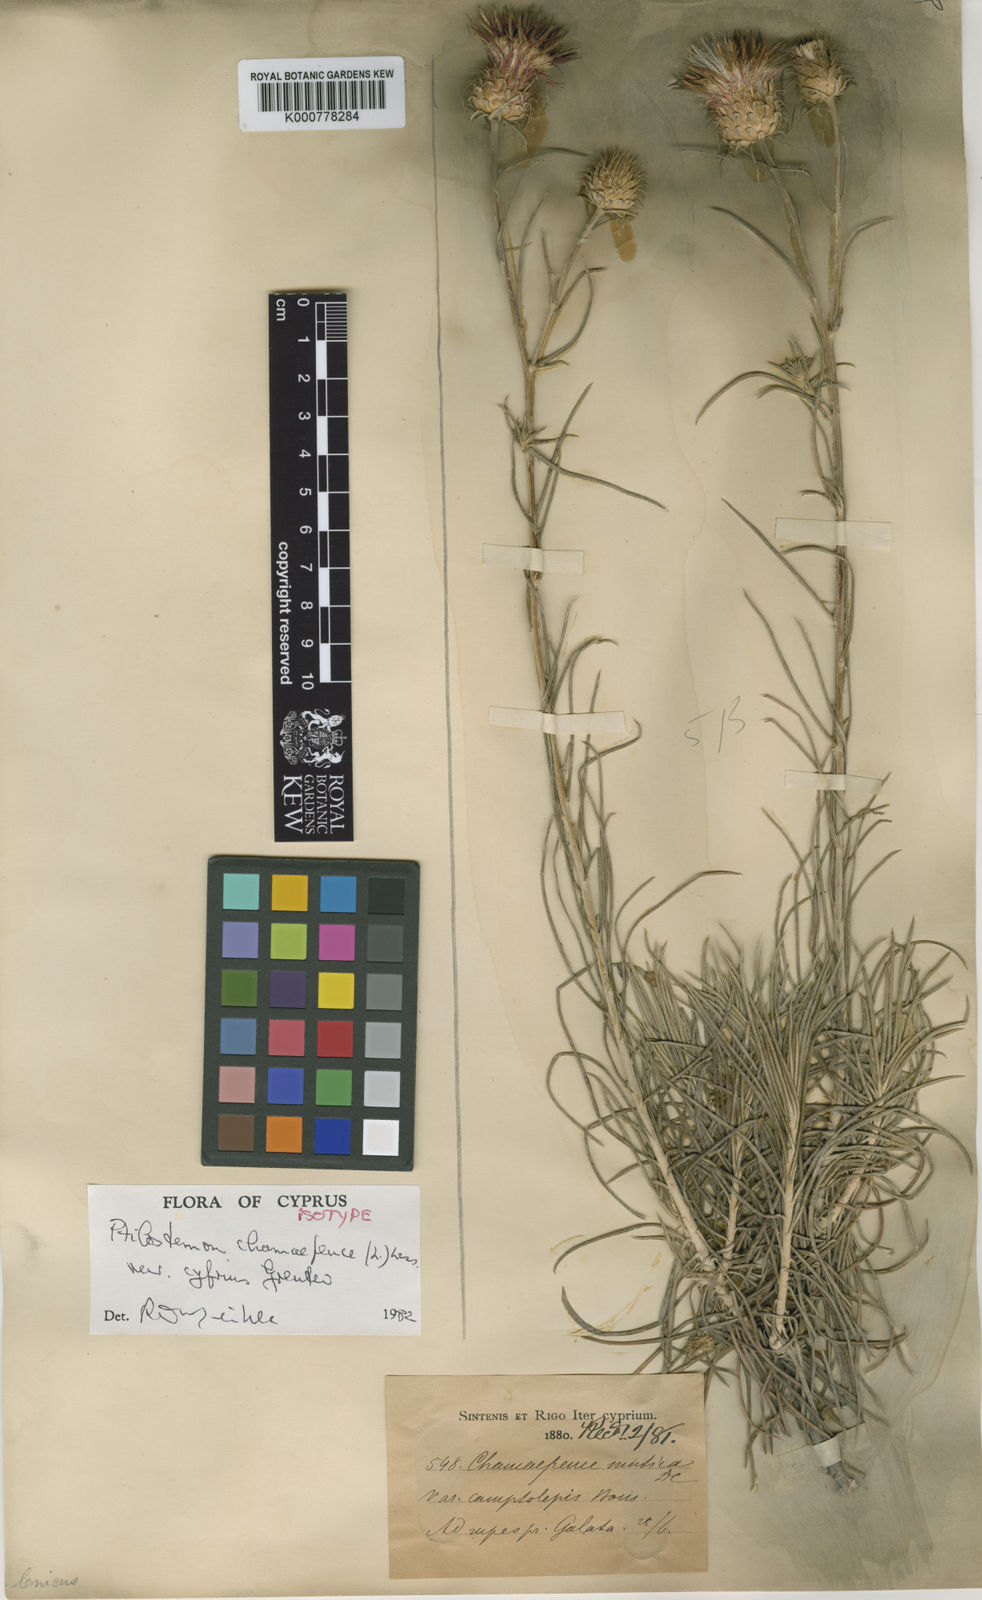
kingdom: Plantae
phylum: Tracheophyta
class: Magnoliopsida
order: Asterales
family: Asteraceae
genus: Ptilostemon
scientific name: Ptilostemon chamaepeuce
